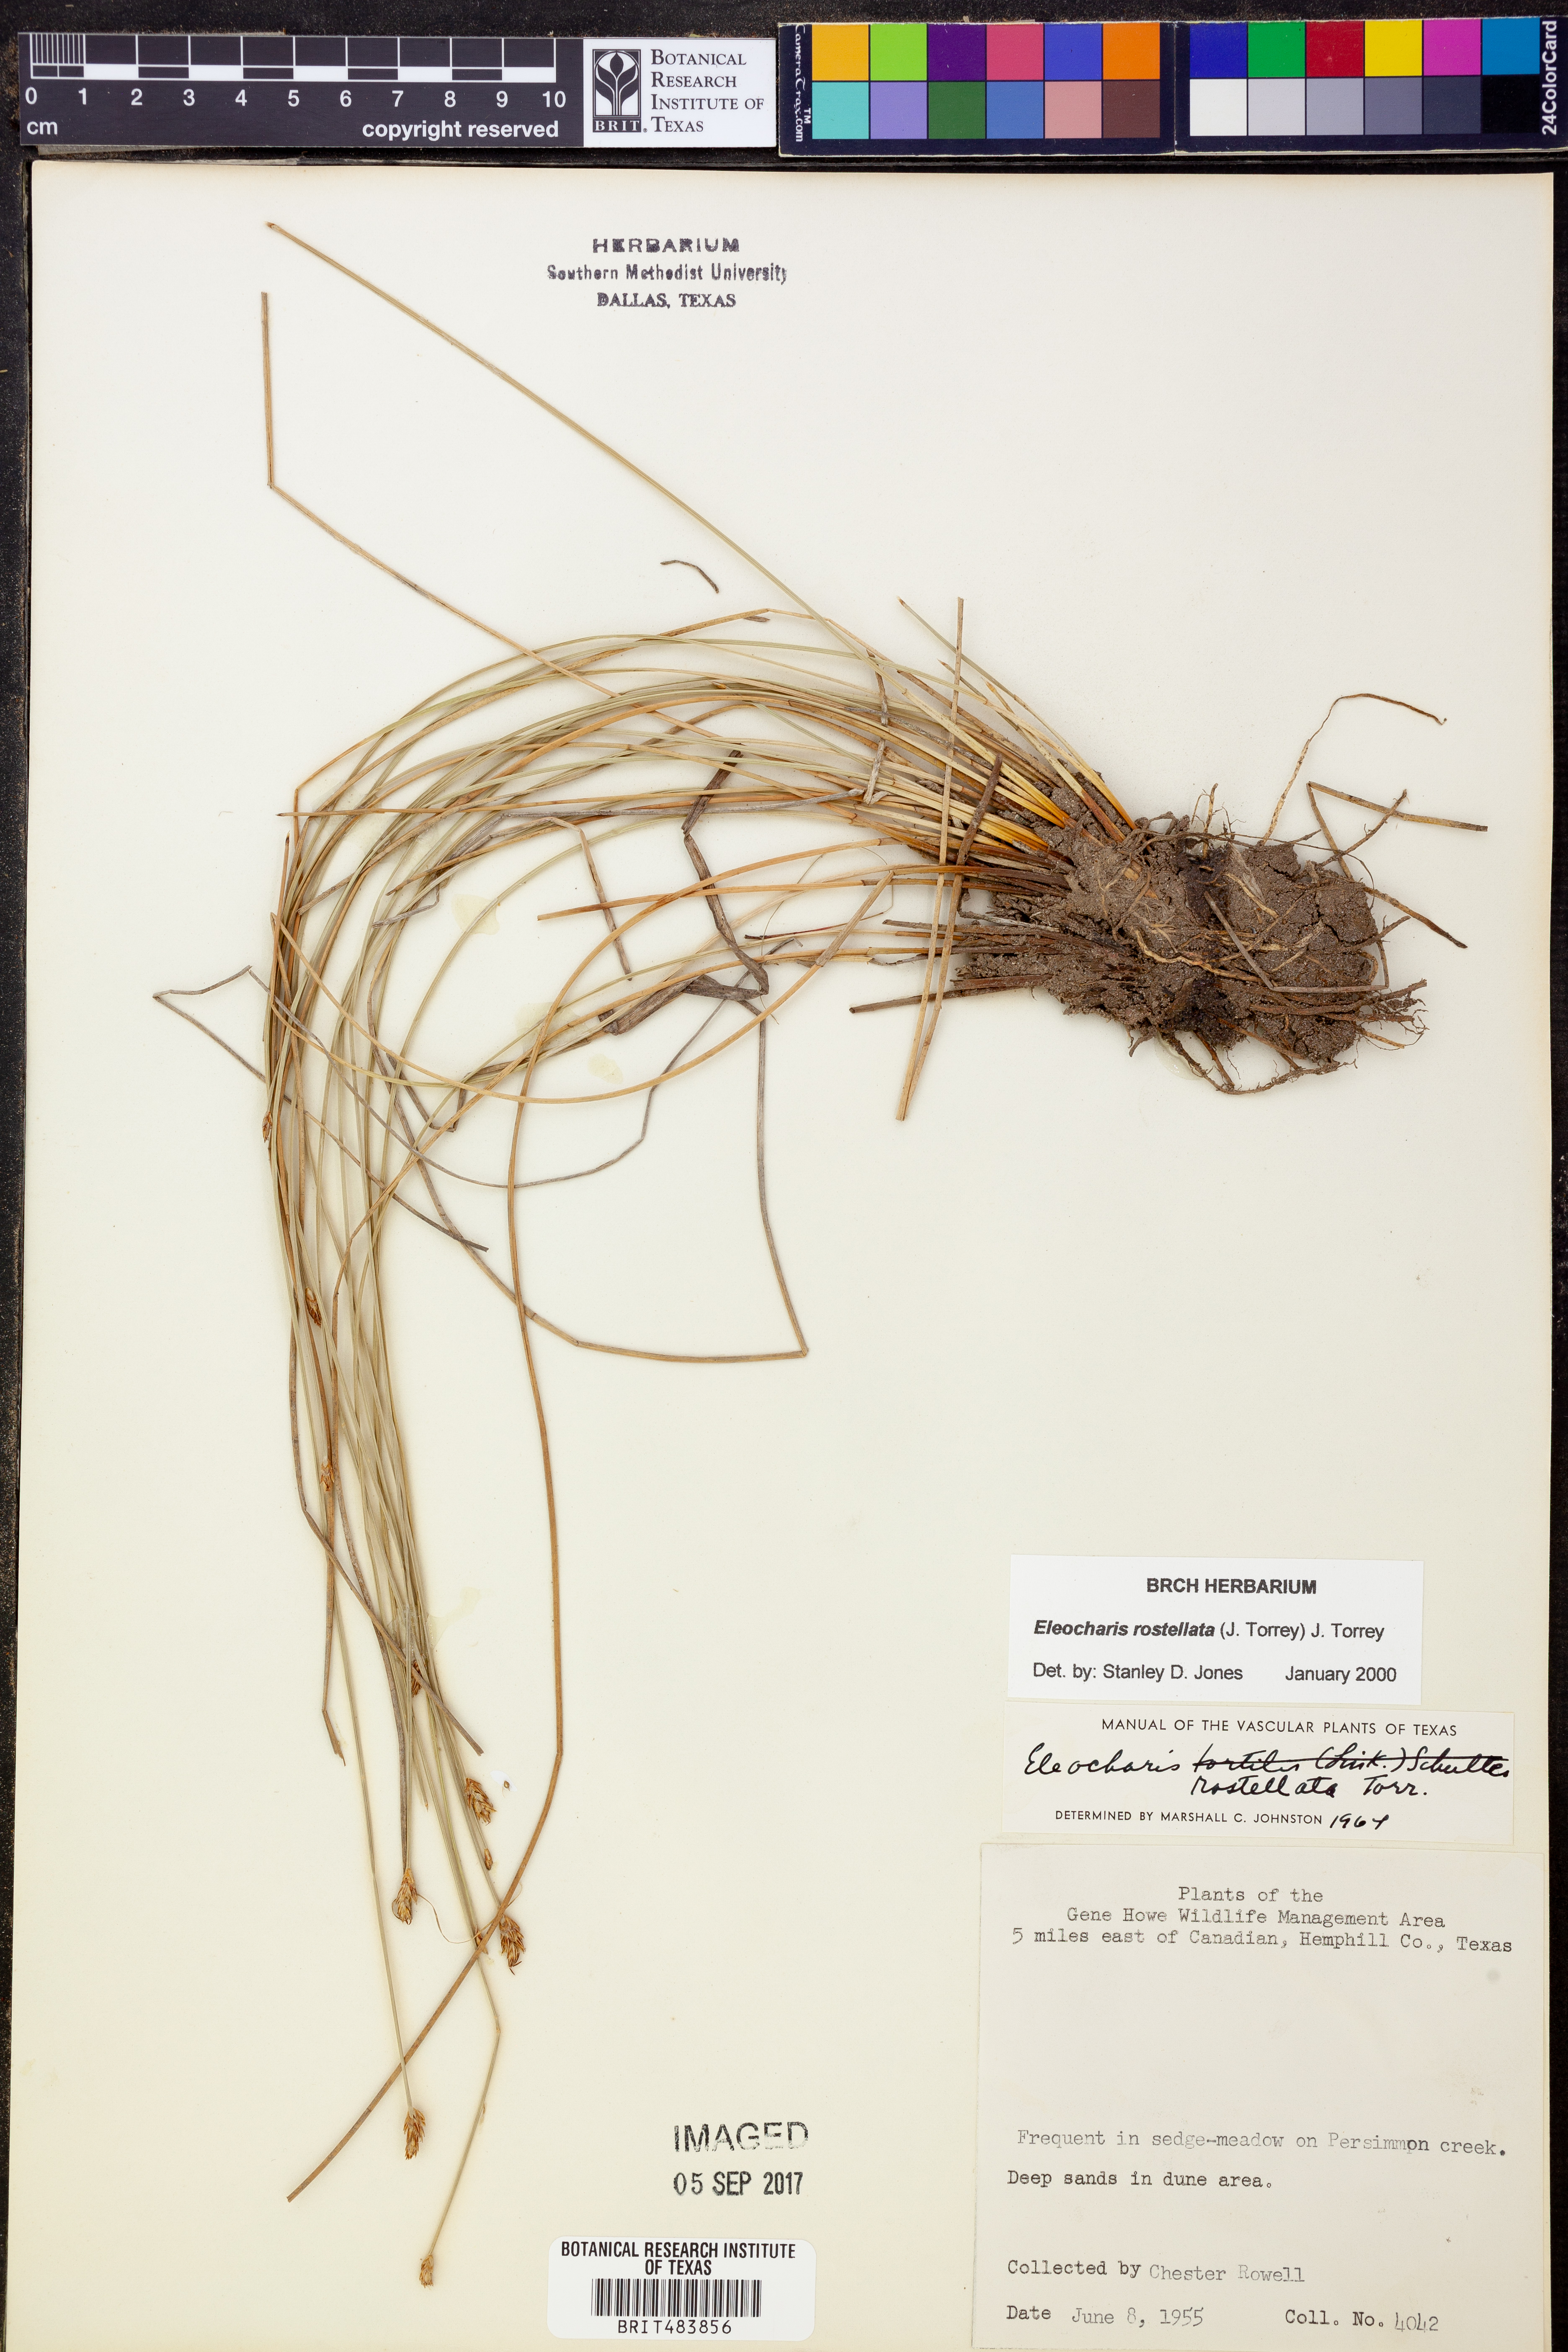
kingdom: Plantae
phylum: Tracheophyta
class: Liliopsida
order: Poales
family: Cyperaceae
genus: Eleocharis
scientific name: Eleocharis rostellata
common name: Walking sedge
